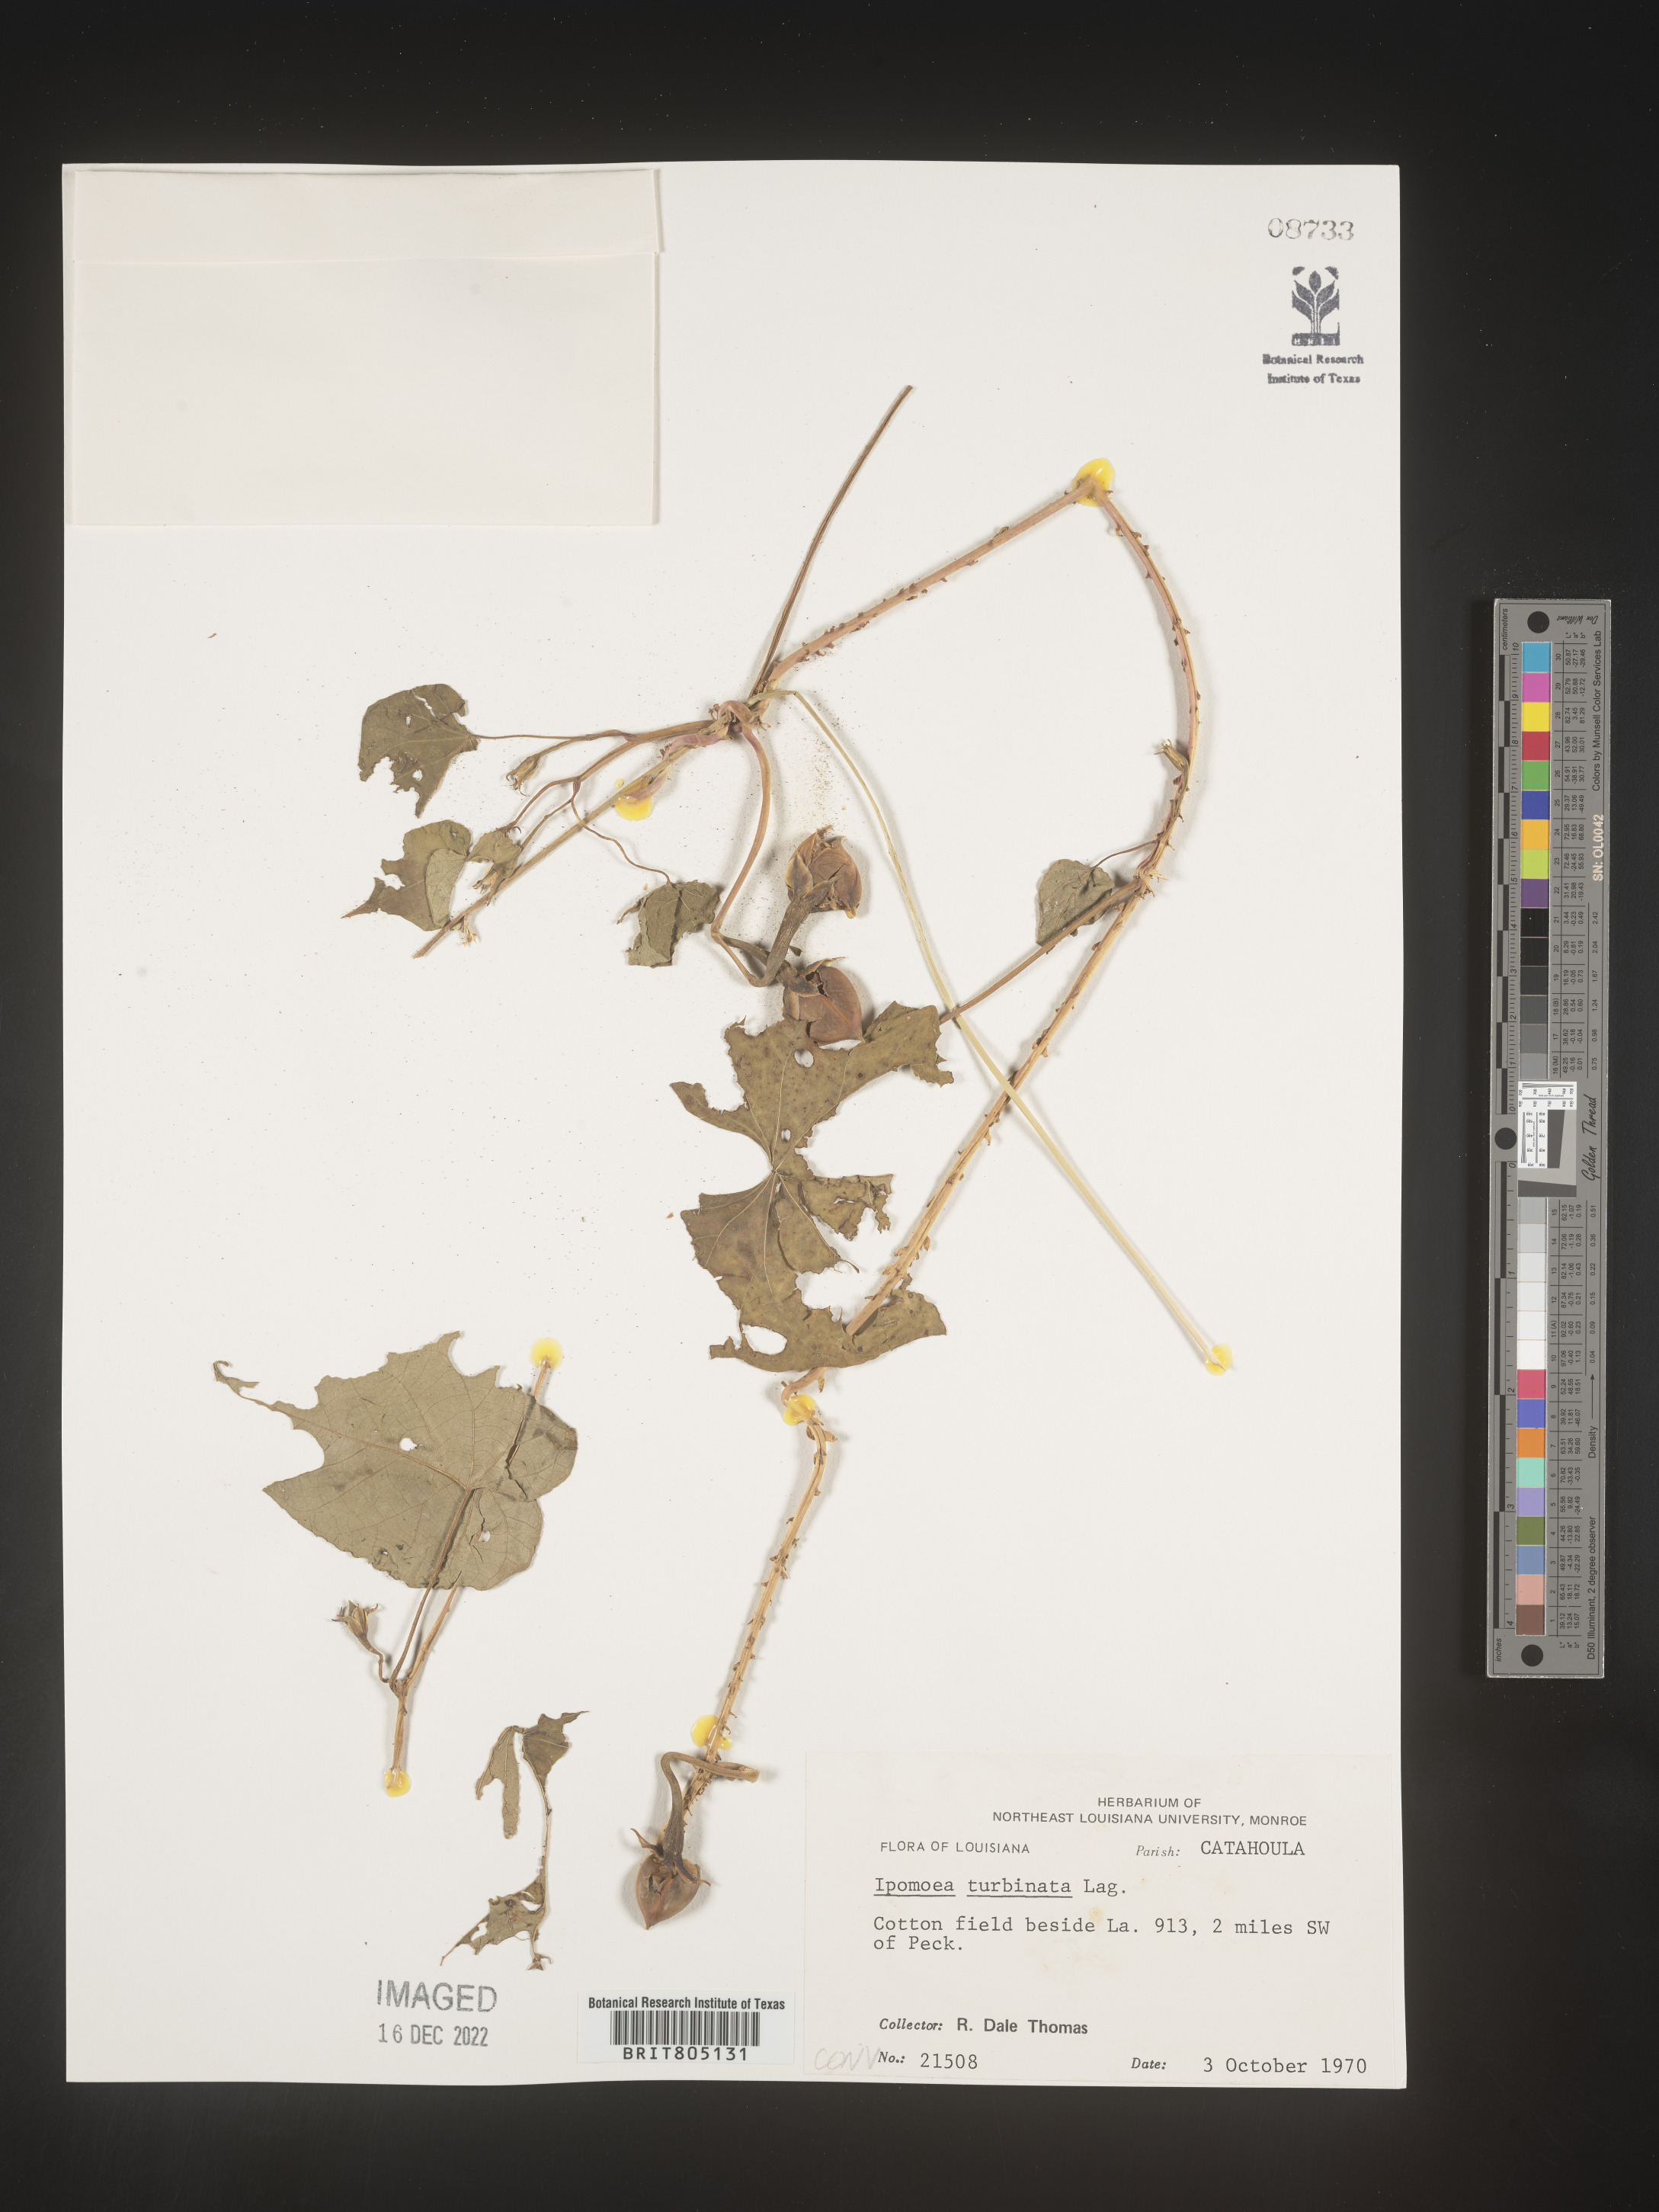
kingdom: Plantae
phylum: Tracheophyta
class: Magnoliopsida
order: Solanales
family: Convolvulaceae
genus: Ipomoea
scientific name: Ipomoea muricata
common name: Lilac-bell
